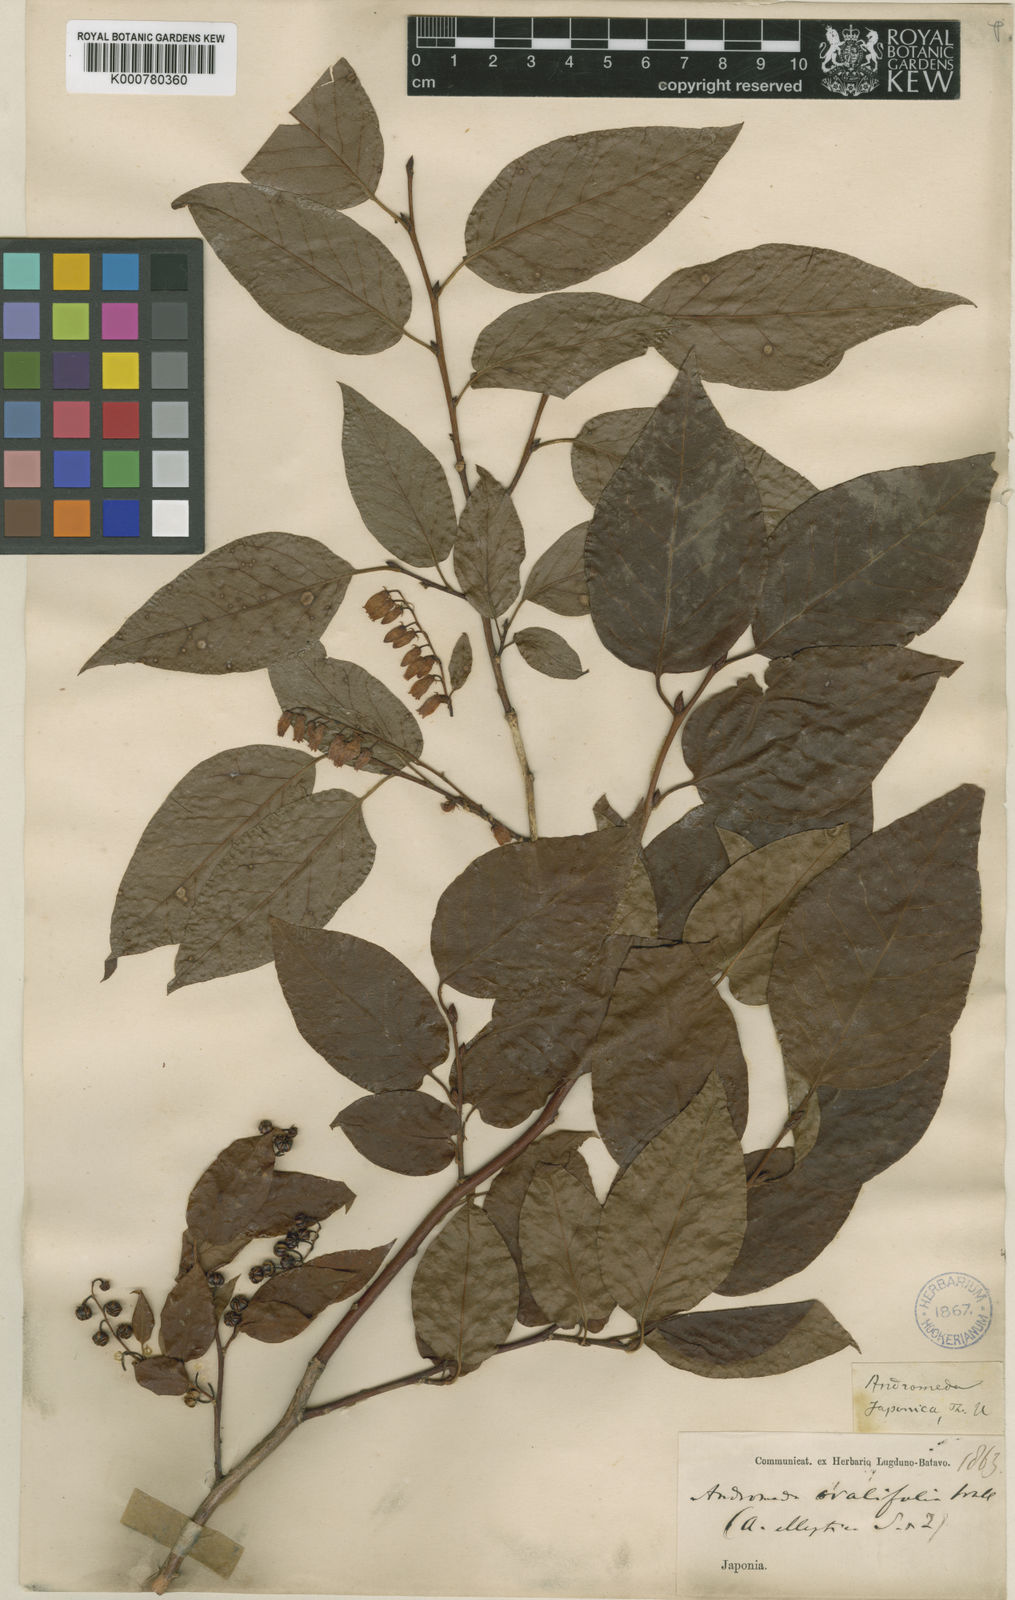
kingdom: Plantae
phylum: Tracheophyta
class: Magnoliopsida
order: Ericales
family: Ericaceae
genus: Lyonia
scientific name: Lyonia elliptica
